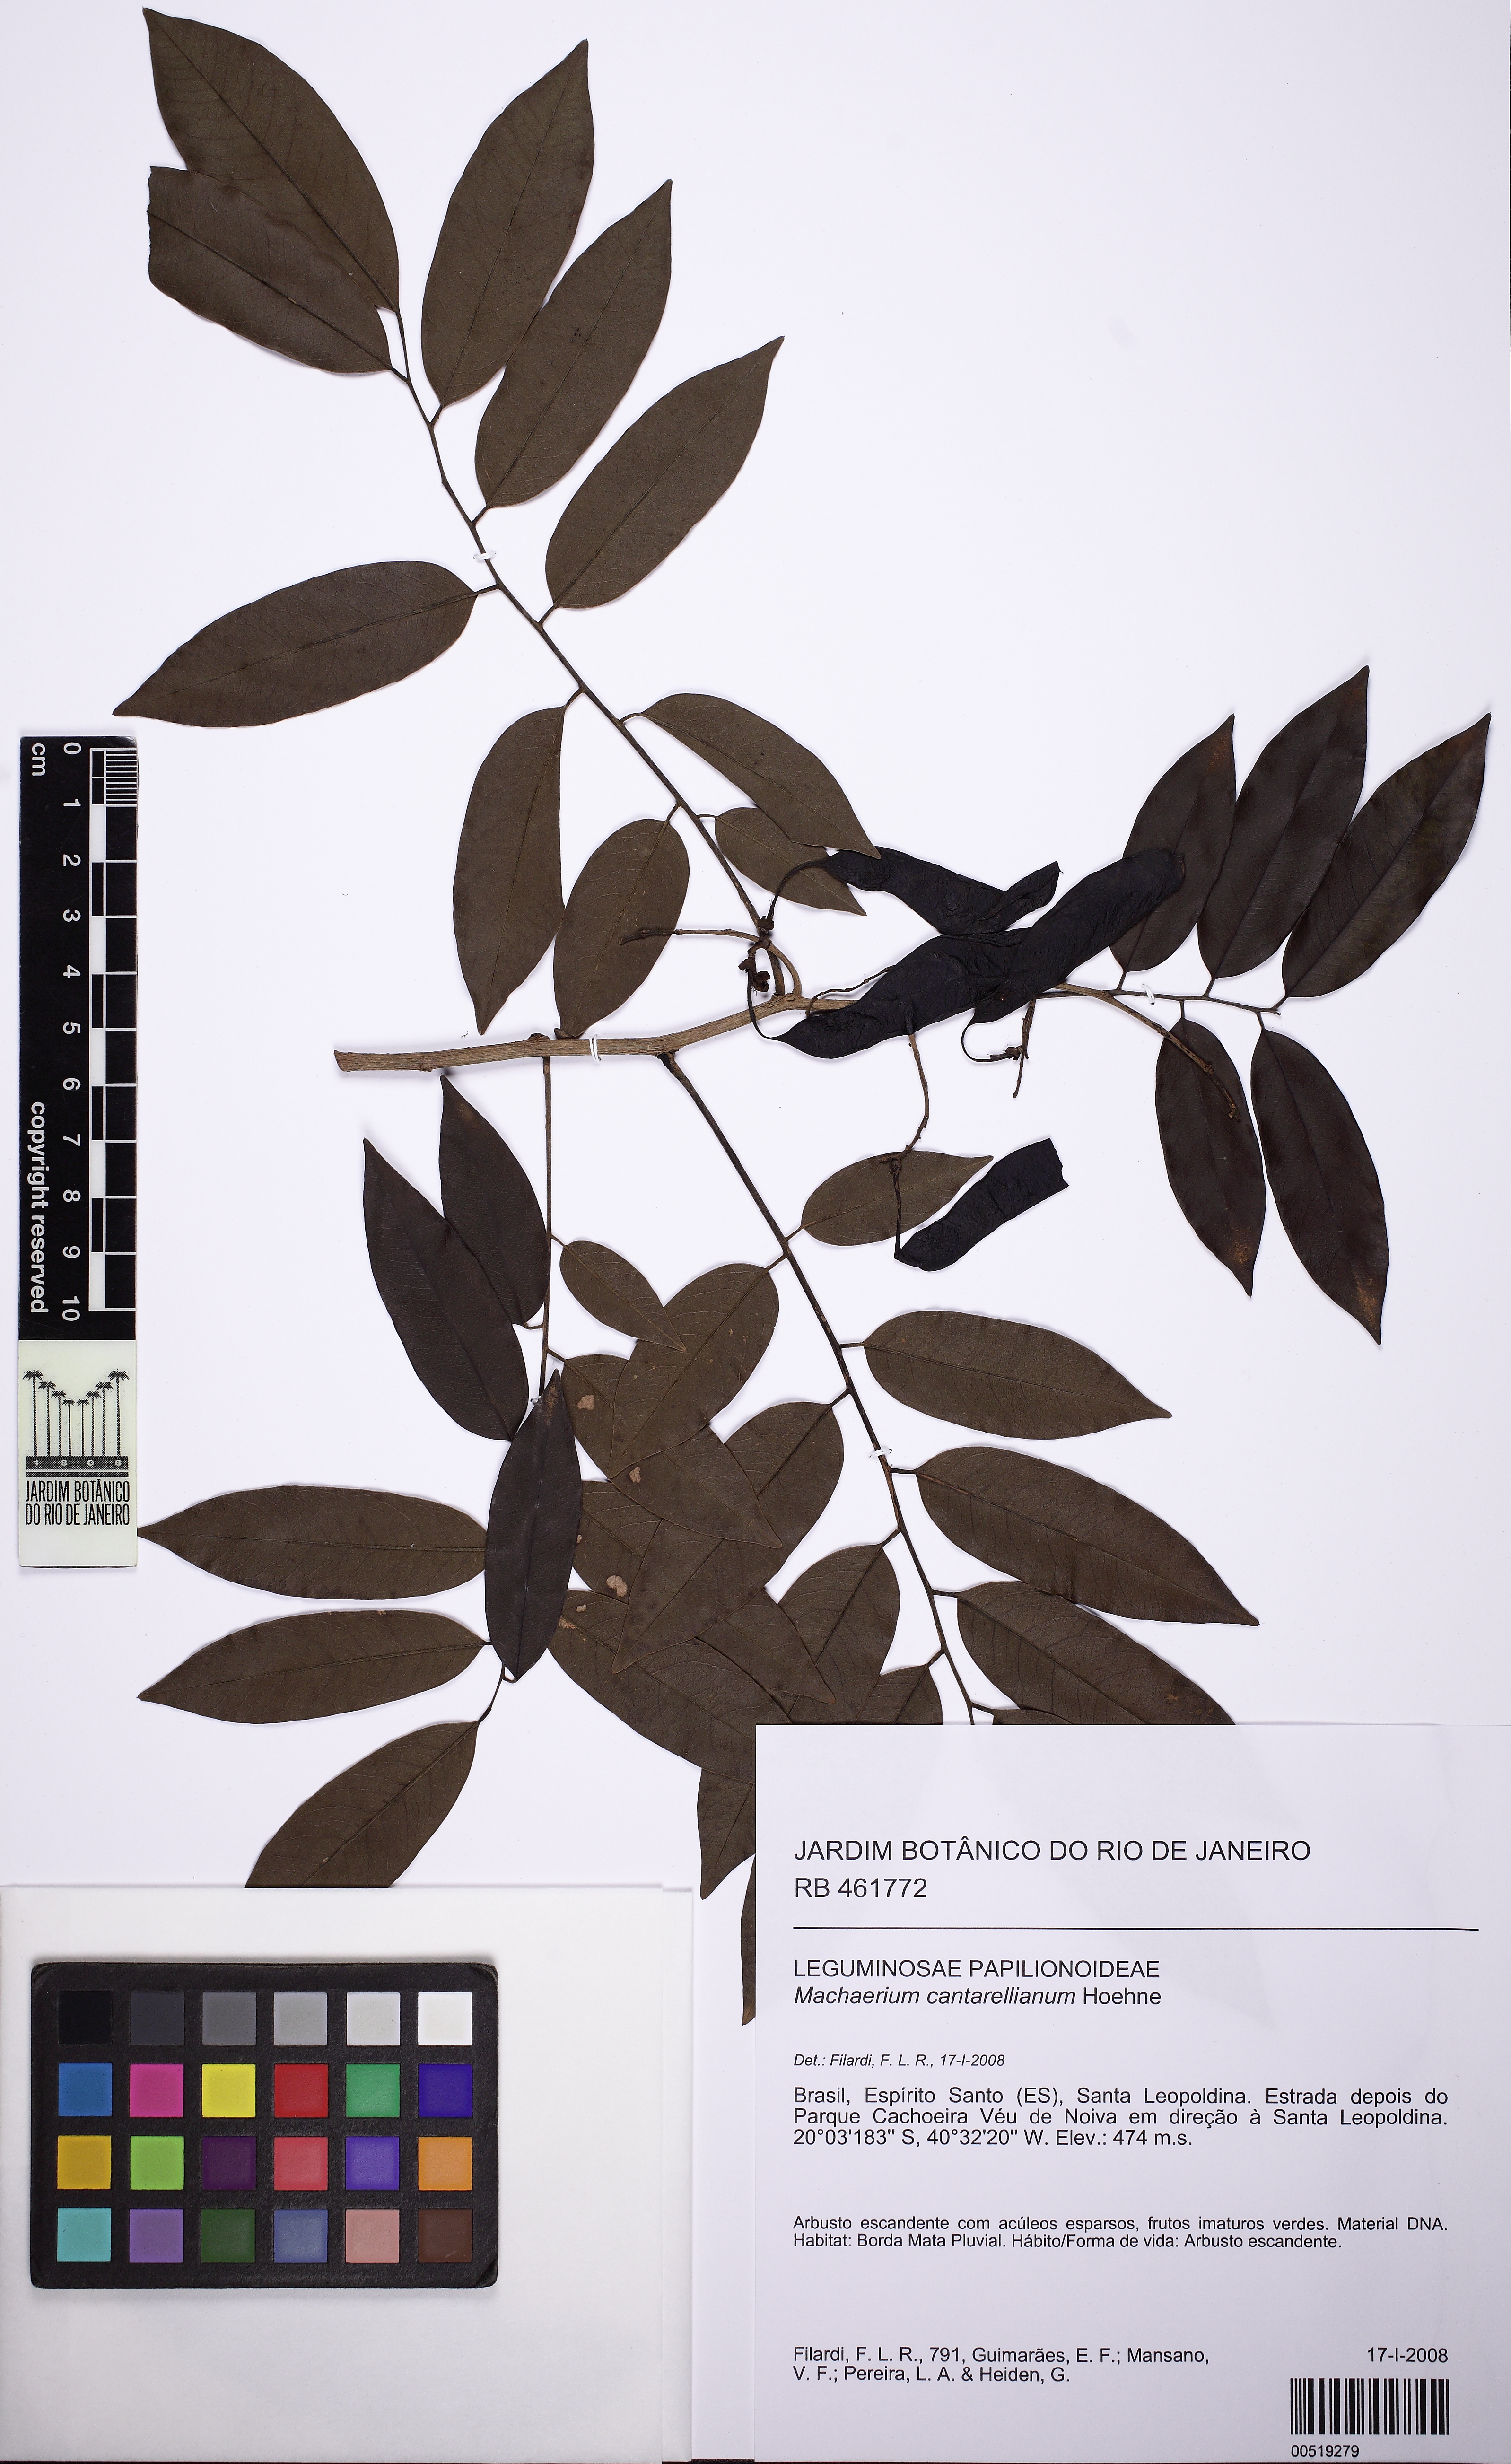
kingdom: Plantae
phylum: Tracheophyta
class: Magnoliopsida
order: Fabales
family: Fabaceae
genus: Machaerium
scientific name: Machaerium cantarellianum
